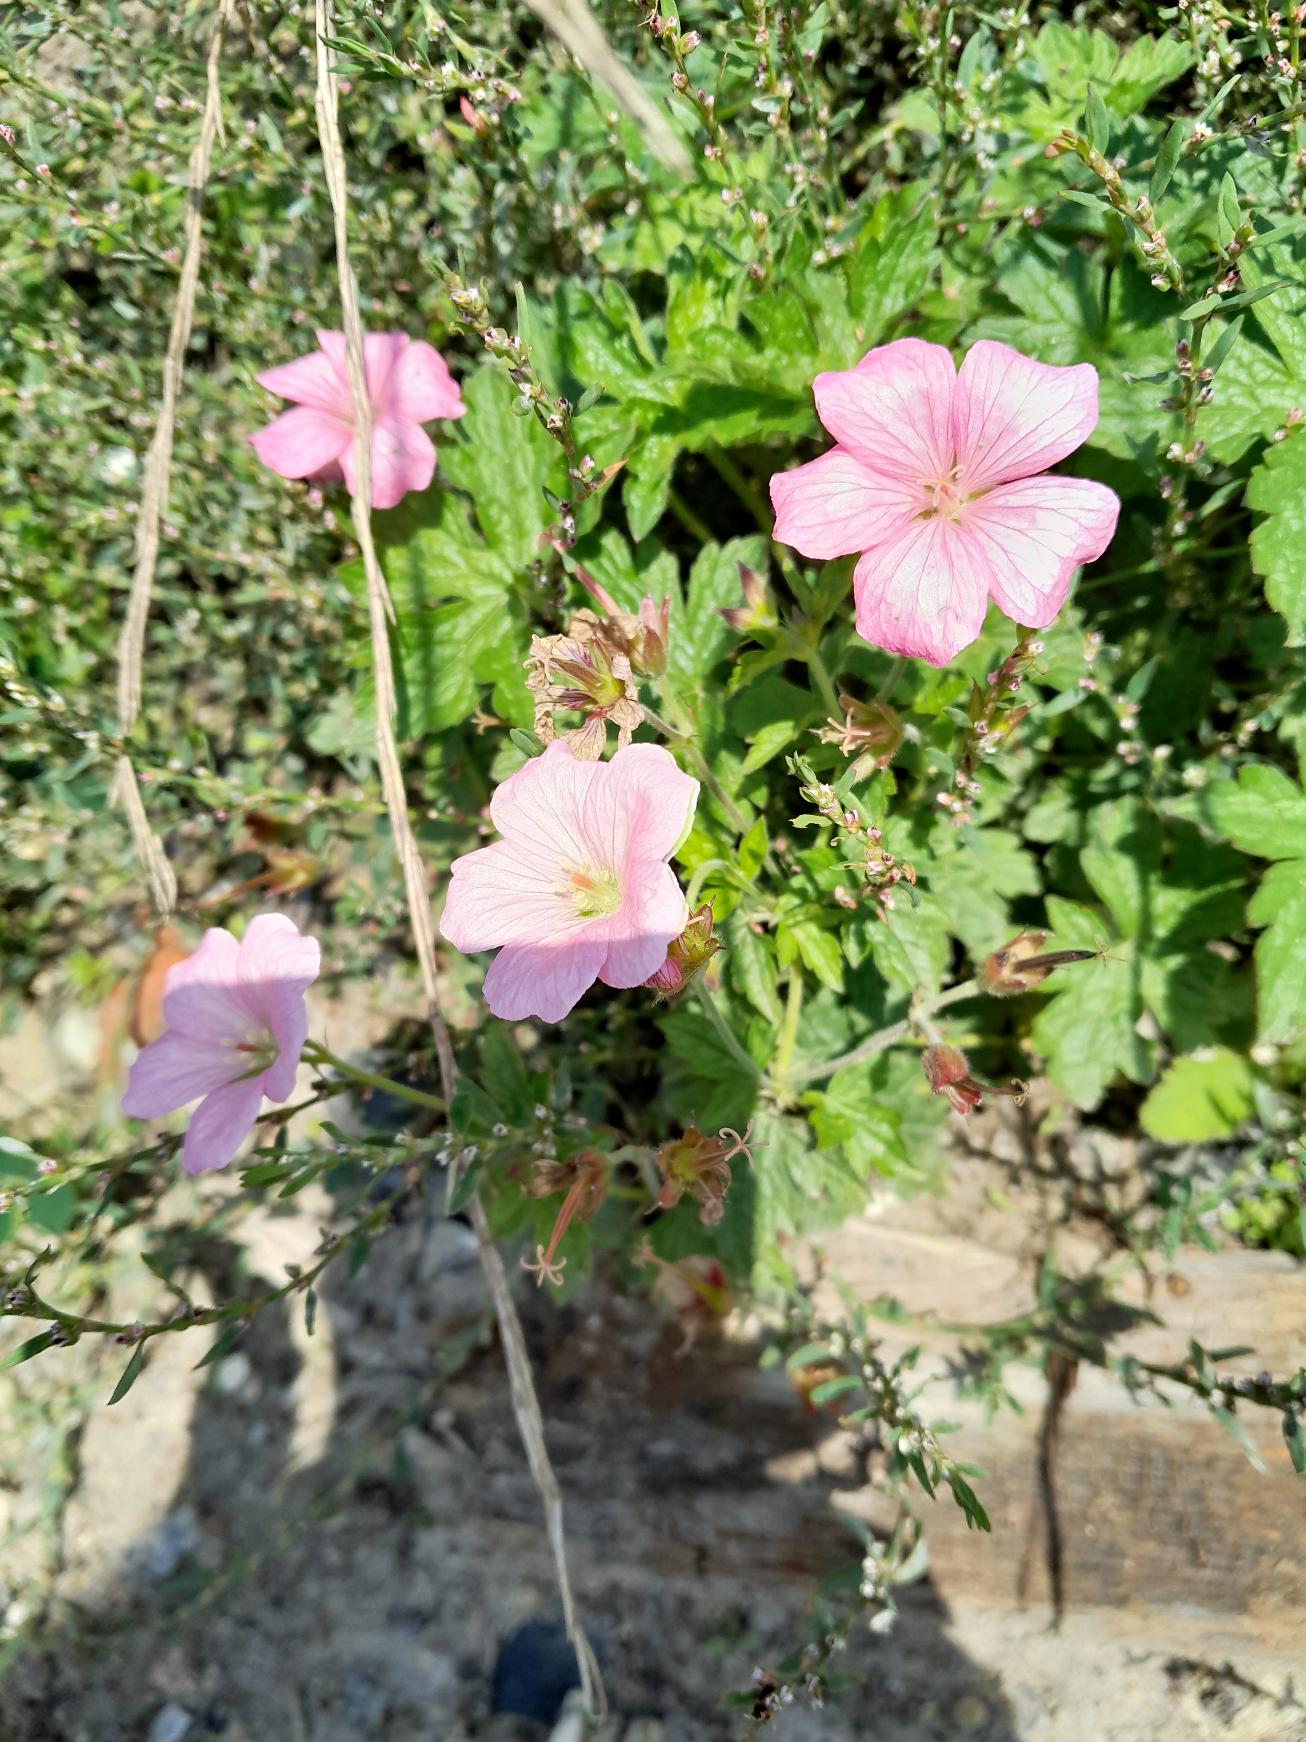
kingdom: Plantae
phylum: Tracheophyta
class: Magnoliopsida
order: Geraniales
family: Geraniaceae
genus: Geranium
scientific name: Geranium endressii
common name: Spansk storkenæb
